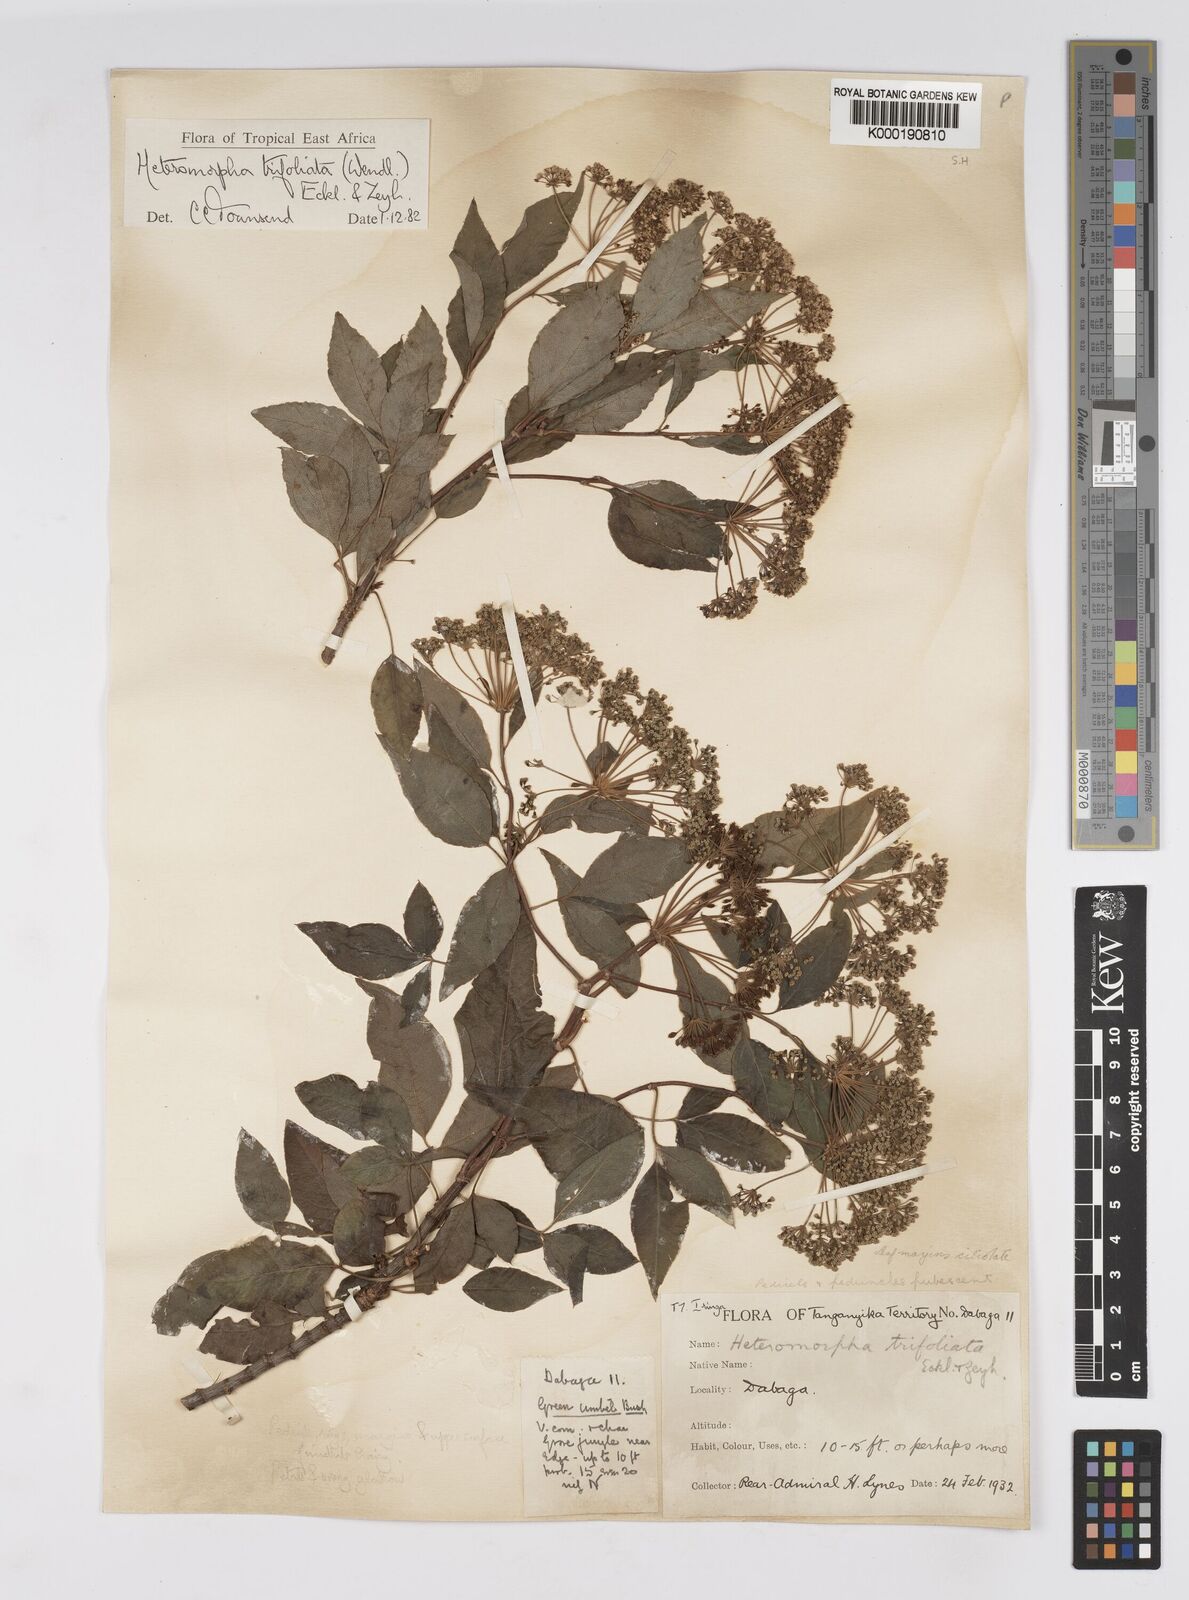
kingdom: Plantae
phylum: Tracheophyta
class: Magnoliopsida
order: Apiales
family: Apiaceae
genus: Heteromorpha
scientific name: Heteromorpha arborescens
